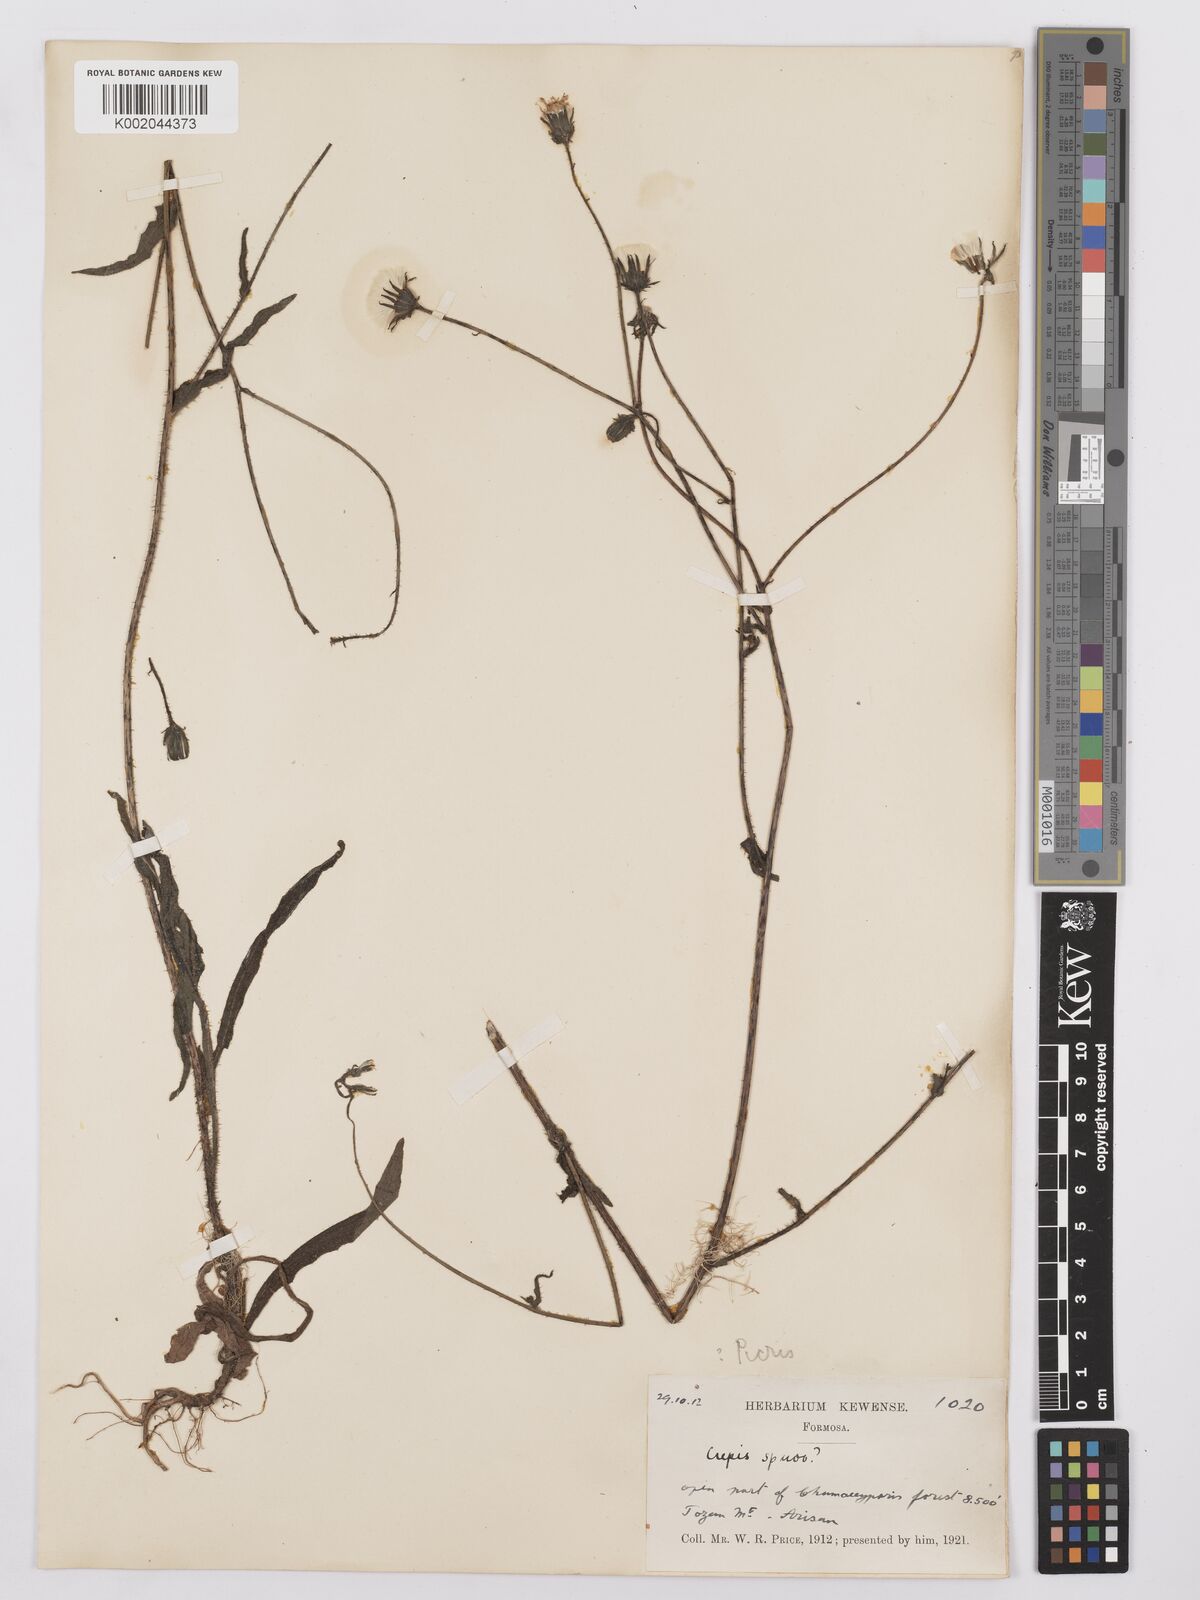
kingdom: Plantae
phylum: Tracheophyta
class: Magnoliopsida
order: Asterales
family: Asteraceae
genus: Helminthotheca
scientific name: Helminthotheca spinosa
